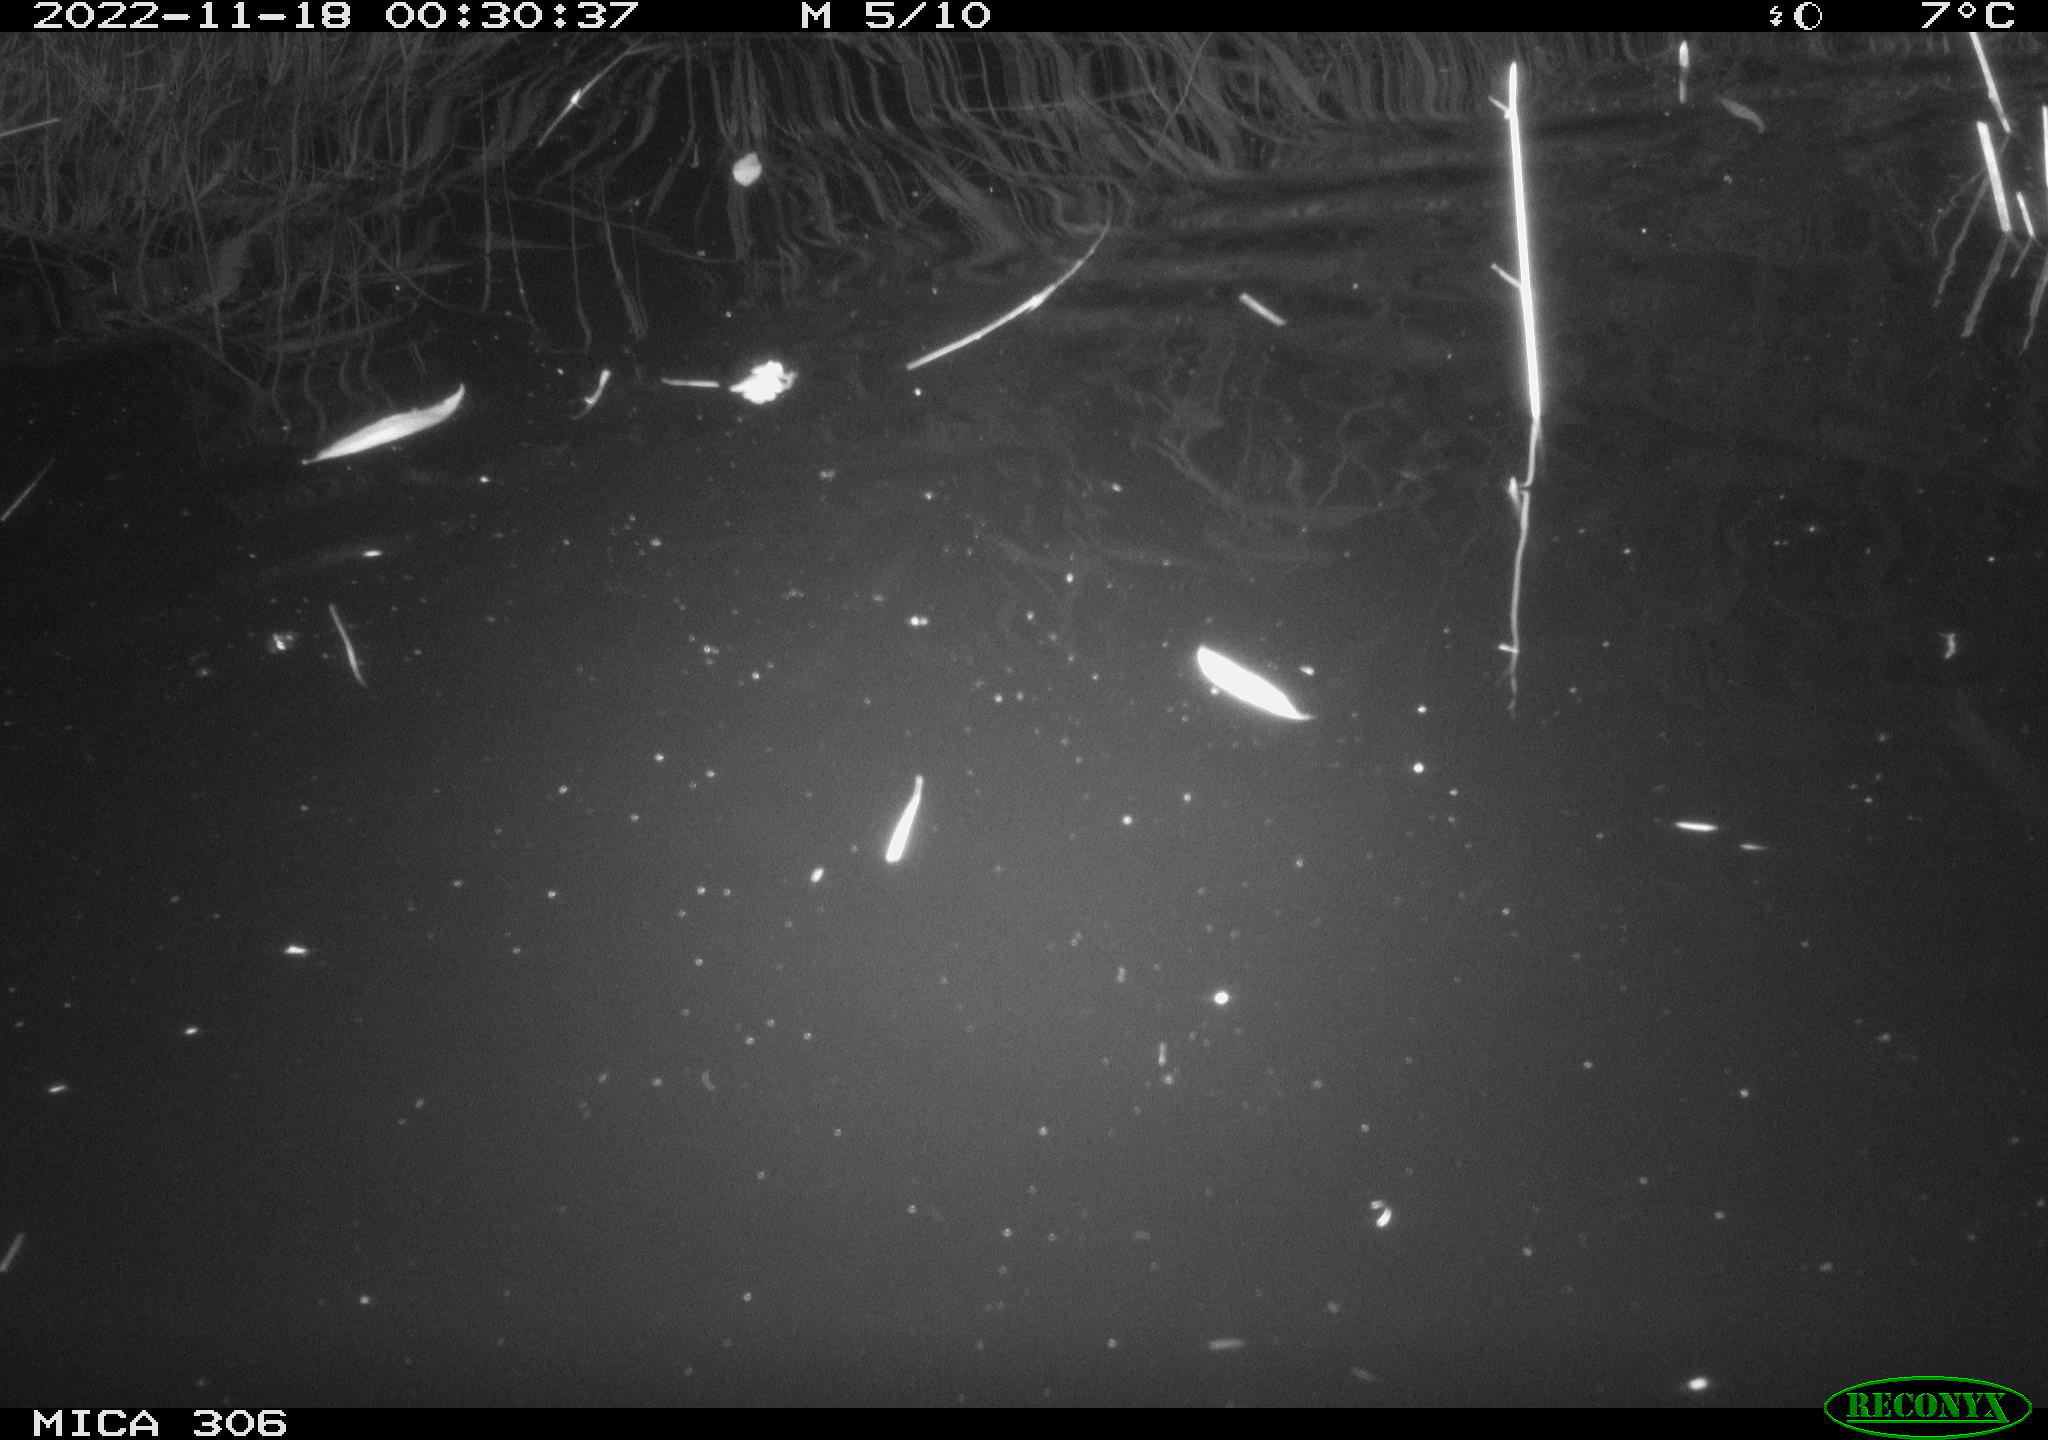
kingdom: Animalia
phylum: Chordata
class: Mammalia
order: Rodentia
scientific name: Rodentia
